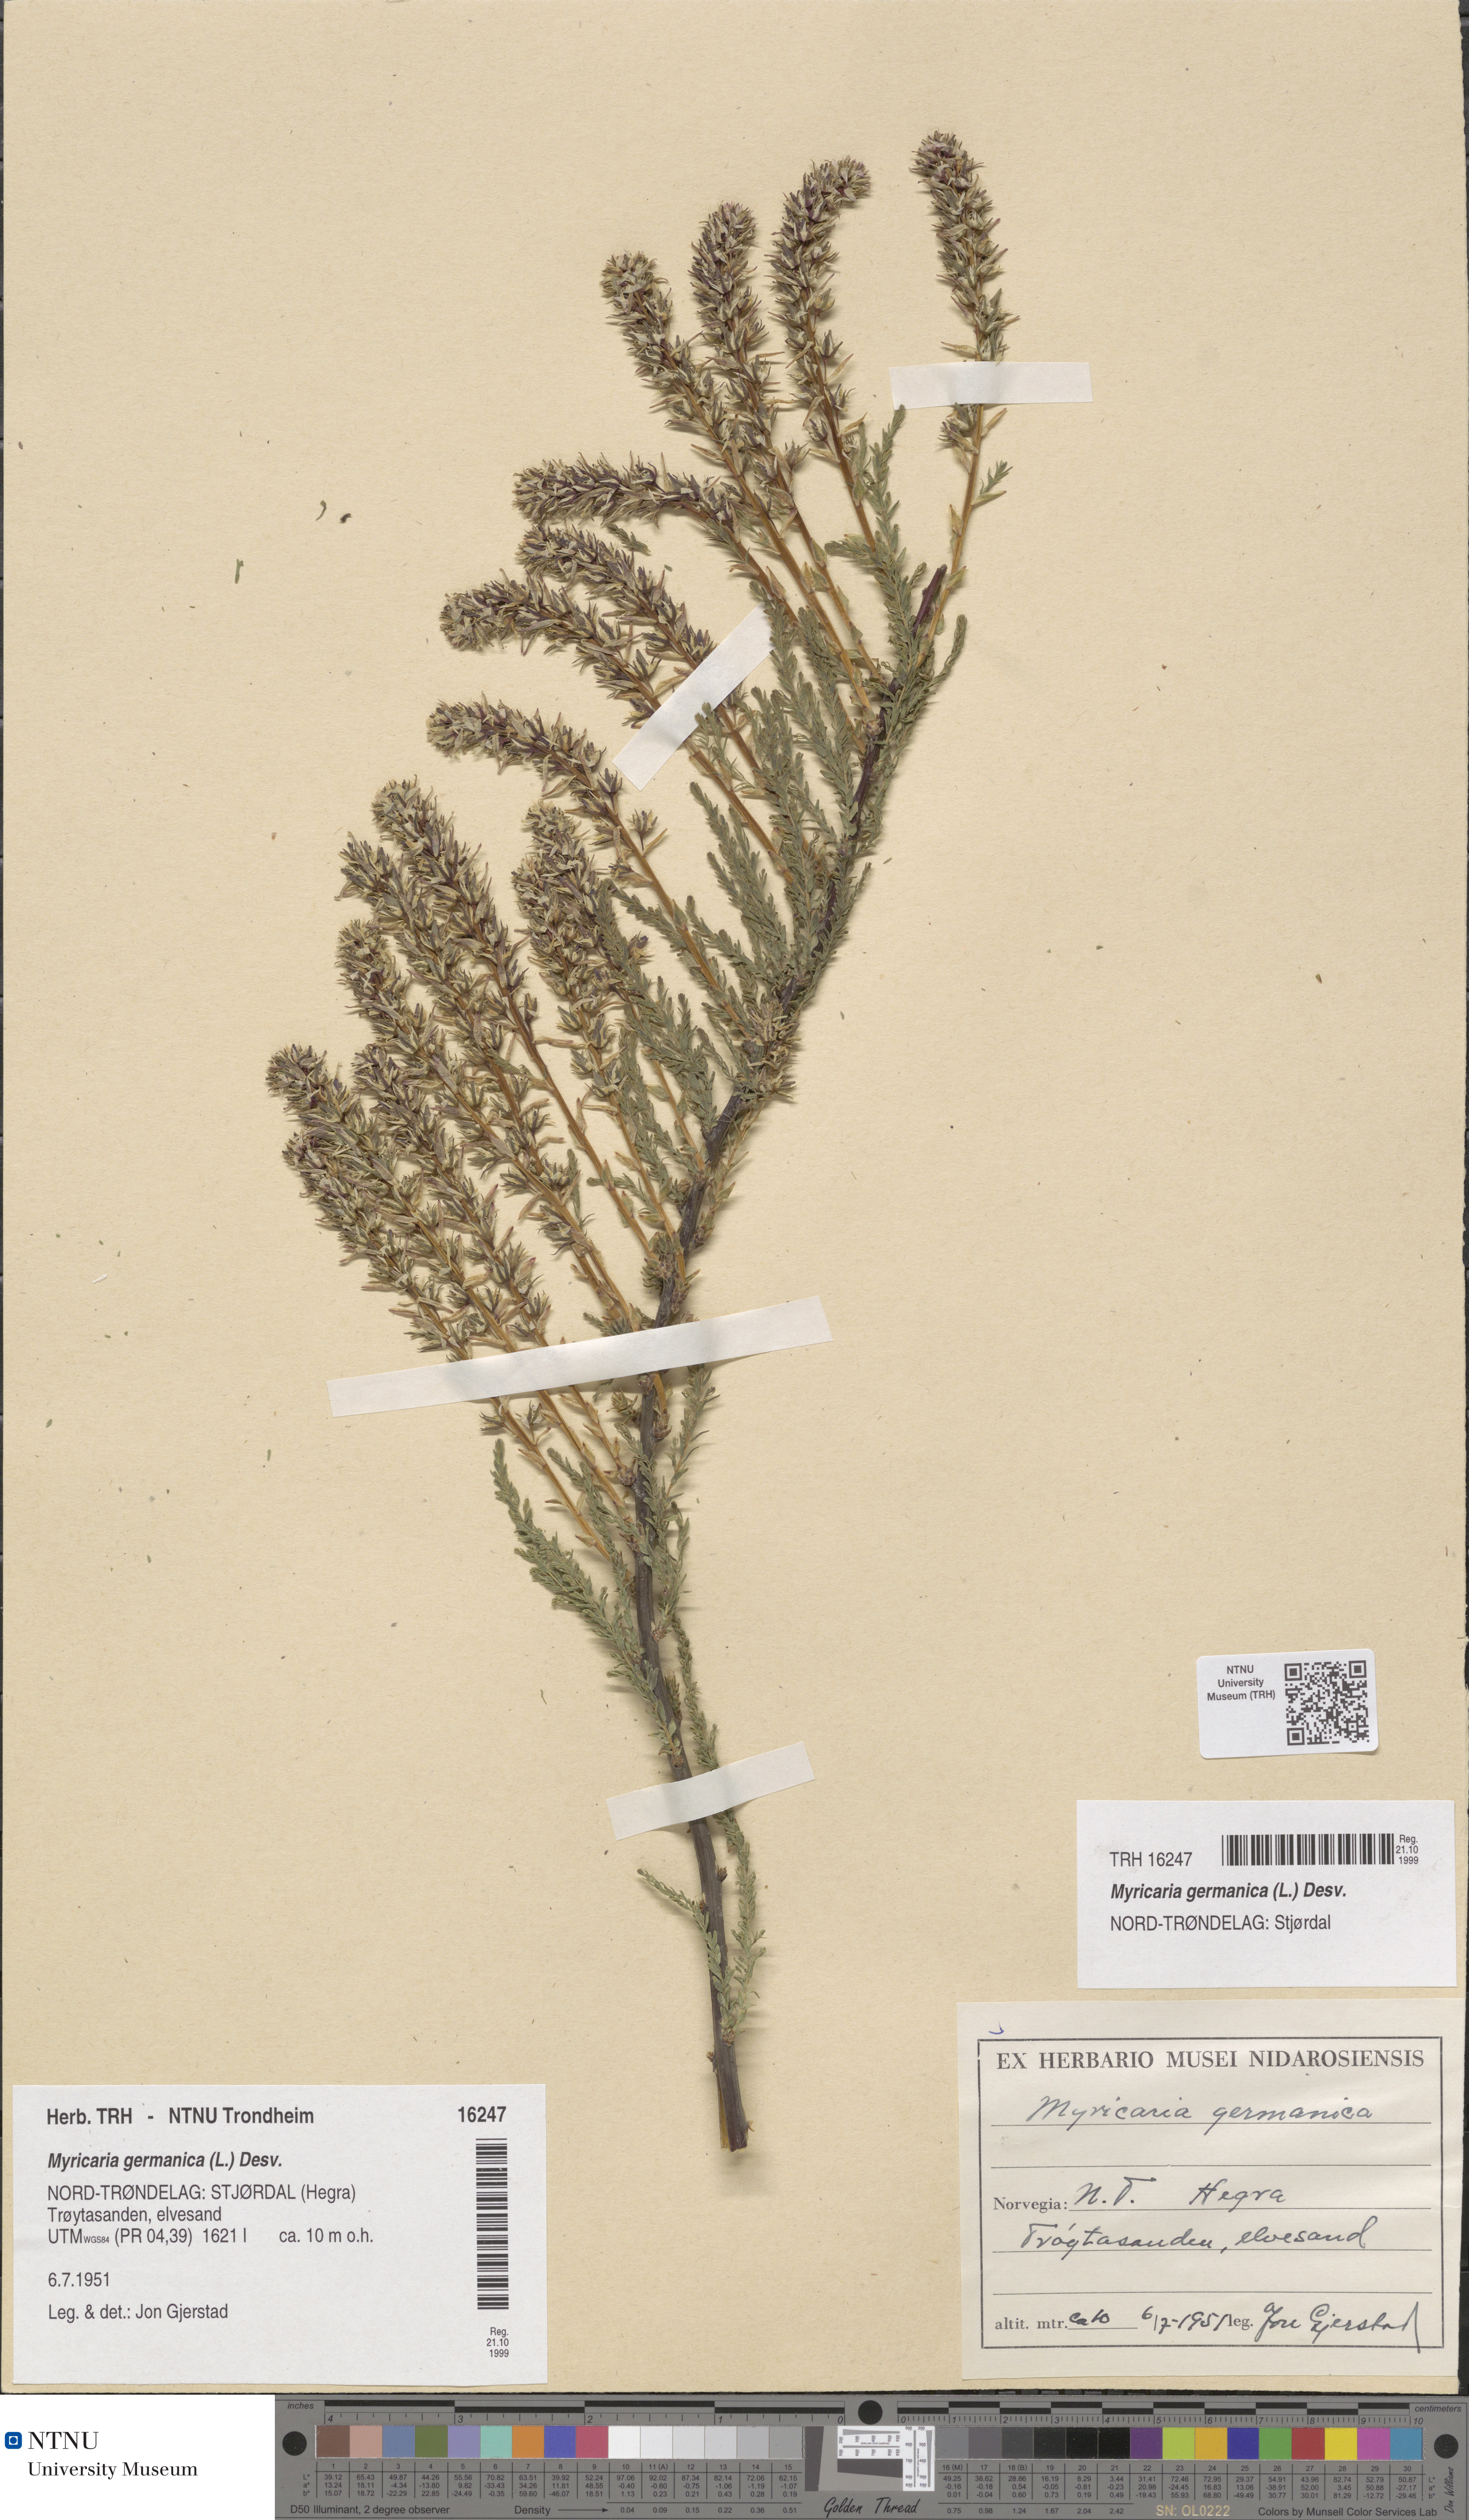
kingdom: Plantae
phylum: Tracheophyta
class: Magnoliopsida
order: Caryophyllales
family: Tamaricaceae
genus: Myricaria
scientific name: Myricaria germanica
